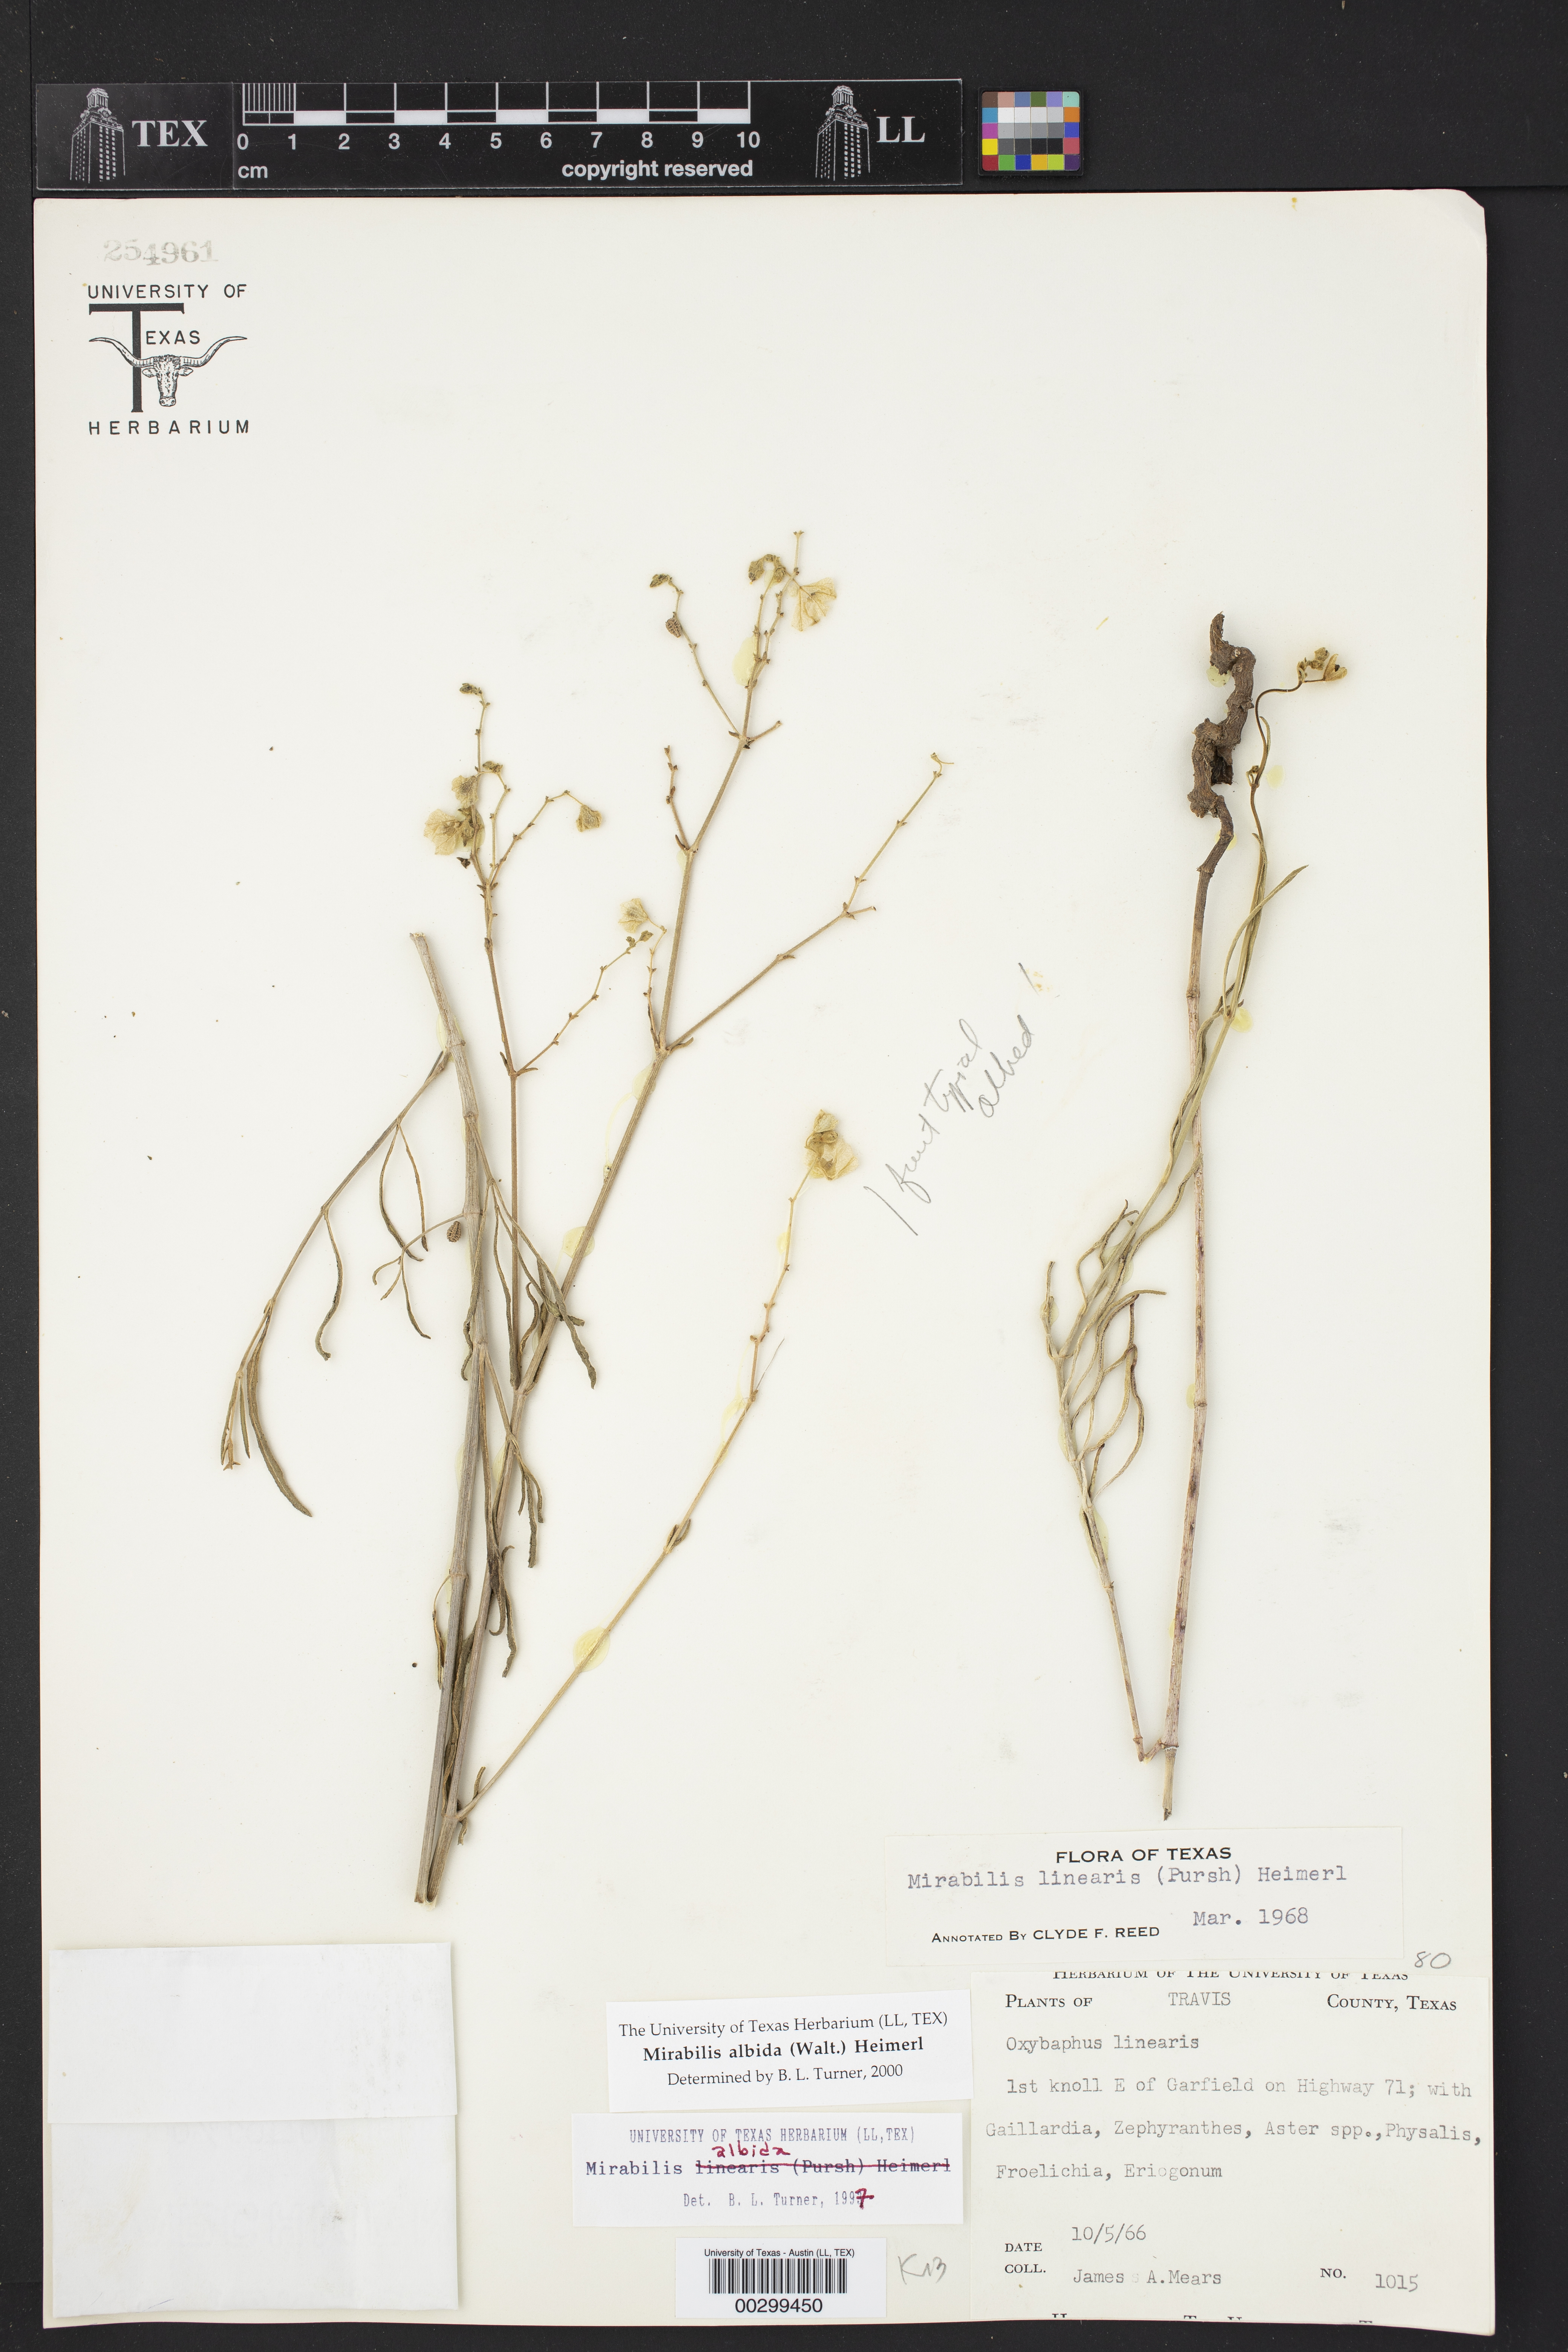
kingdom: Plantae
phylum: Tracheophyta
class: Magnoliopsida
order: Caryophyllales
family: Nyctaginaceae
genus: Mirabilis
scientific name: Mirabilis albida
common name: Hairy four-o'clock
